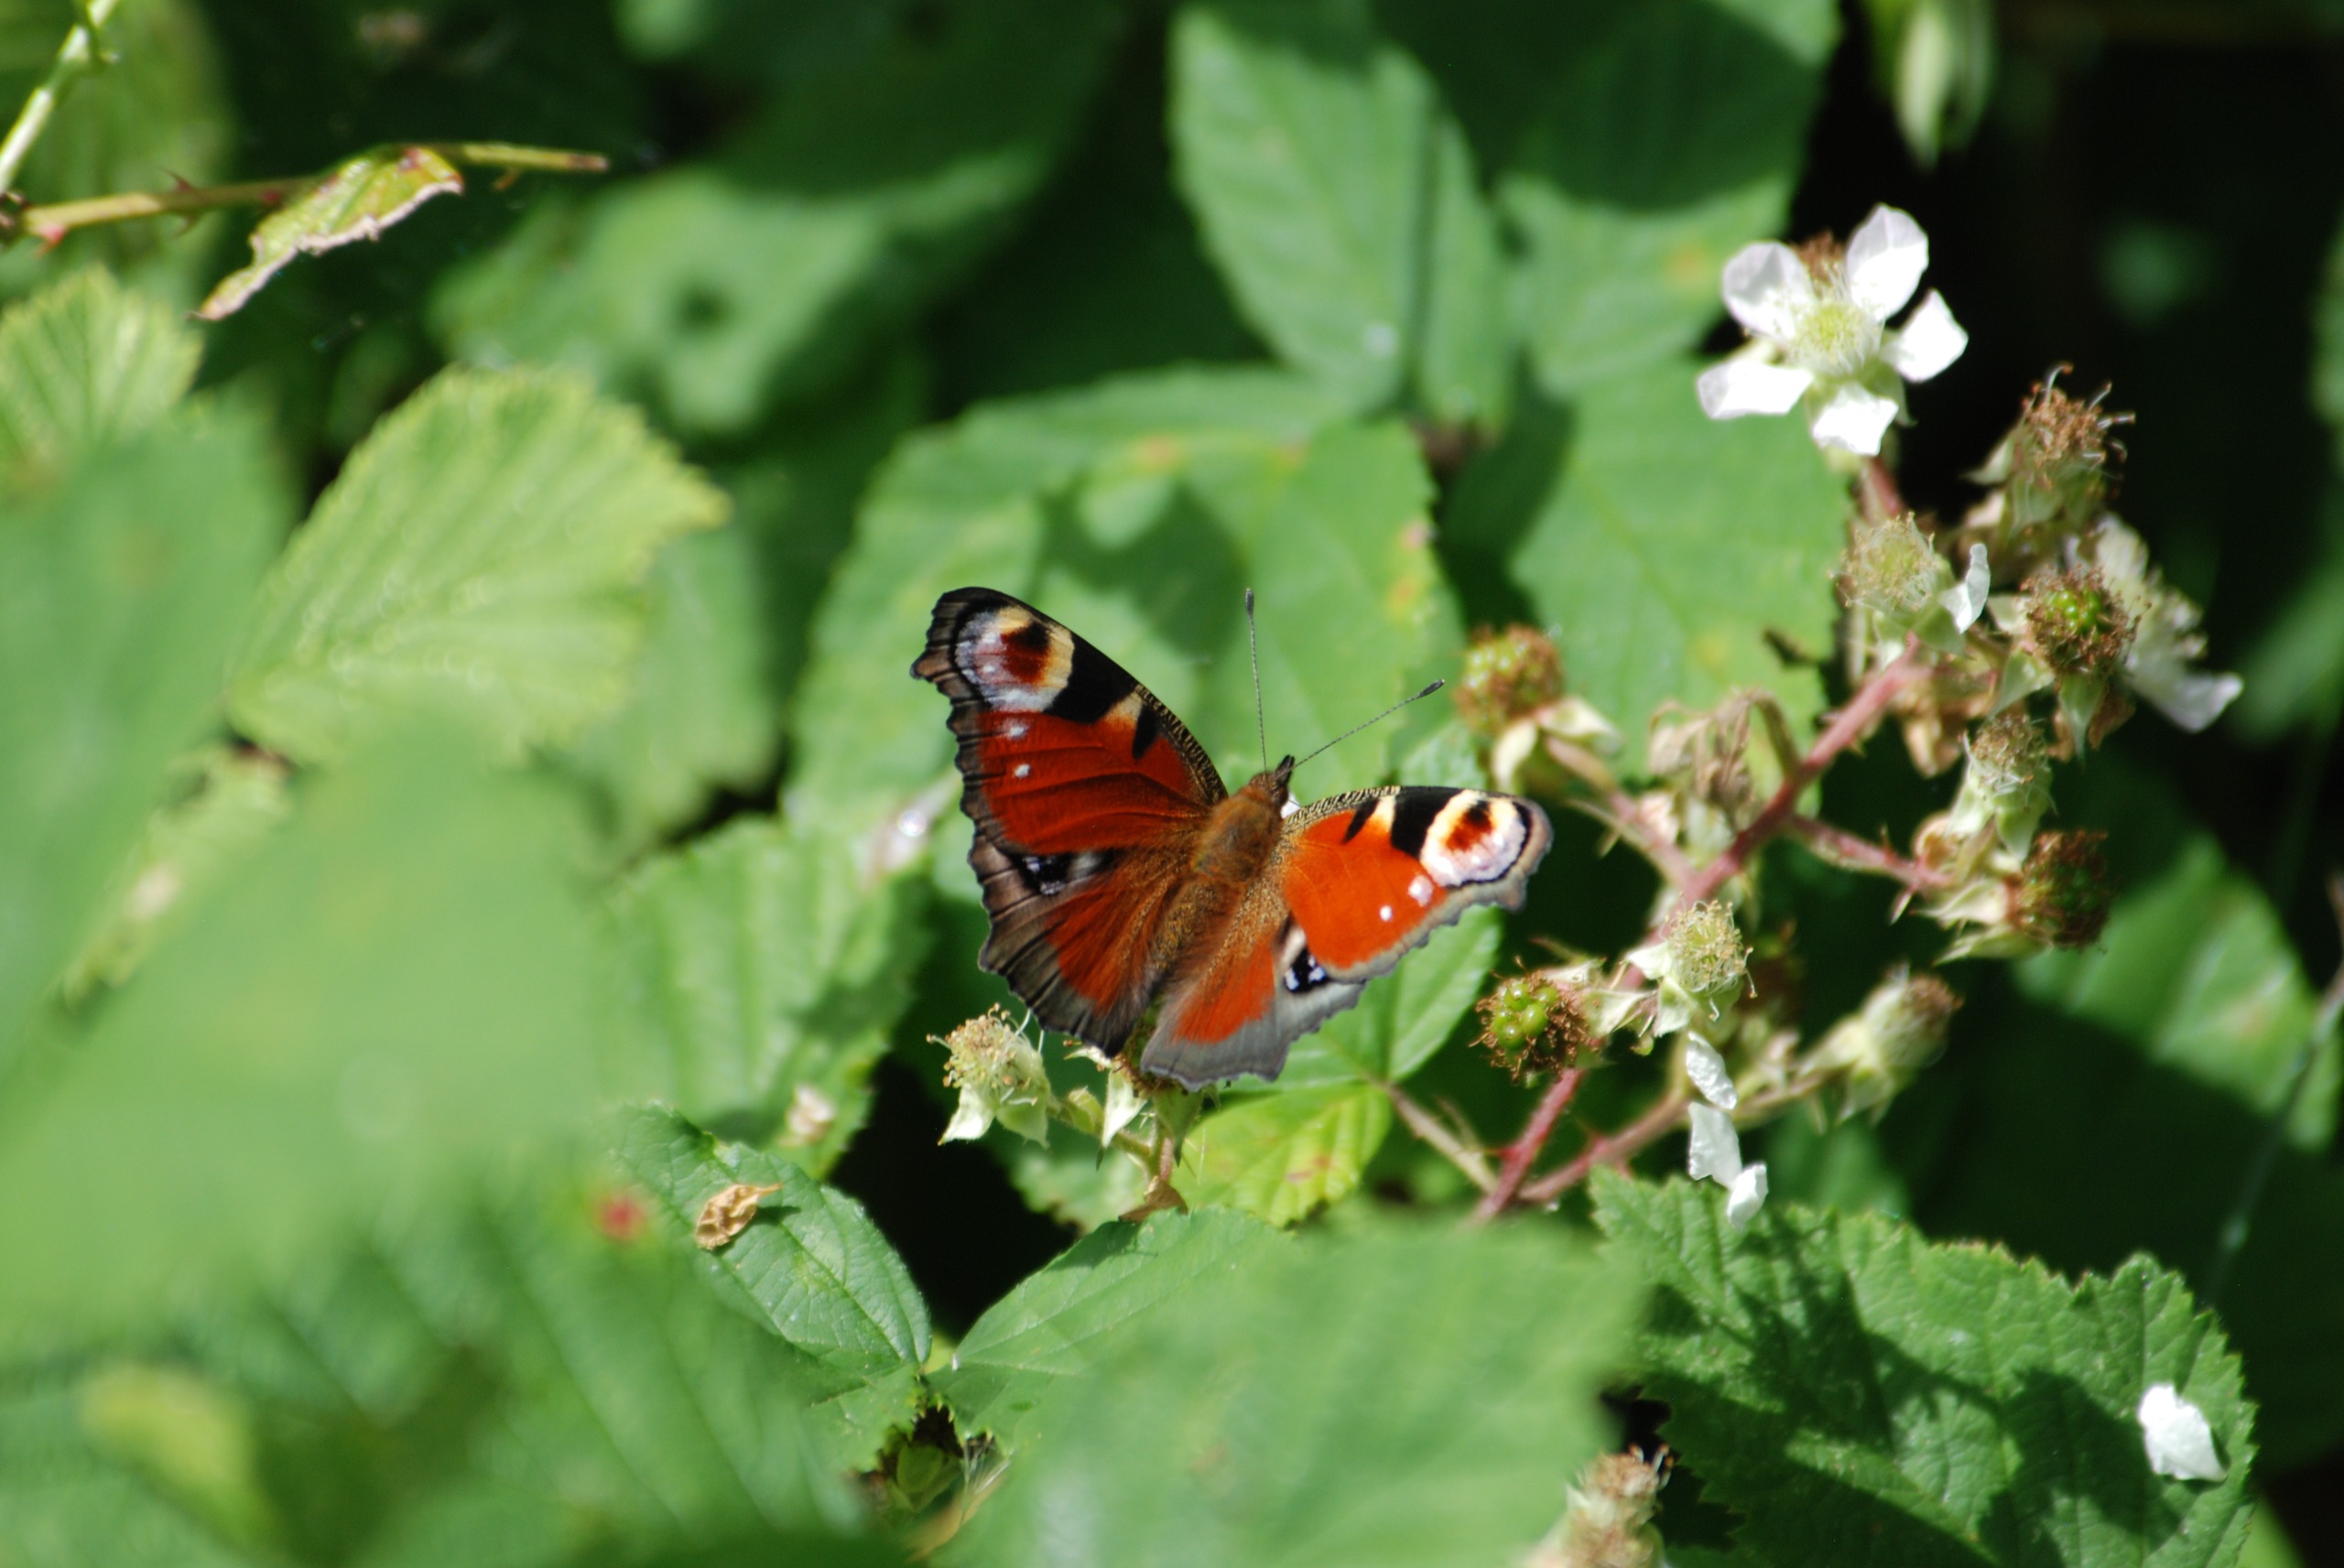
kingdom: Animalia
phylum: Arthropoda
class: Insecta
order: Lepidoptera
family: Nymphalidae
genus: Aglais
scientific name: Aglais io
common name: Dagpåfugleøje
